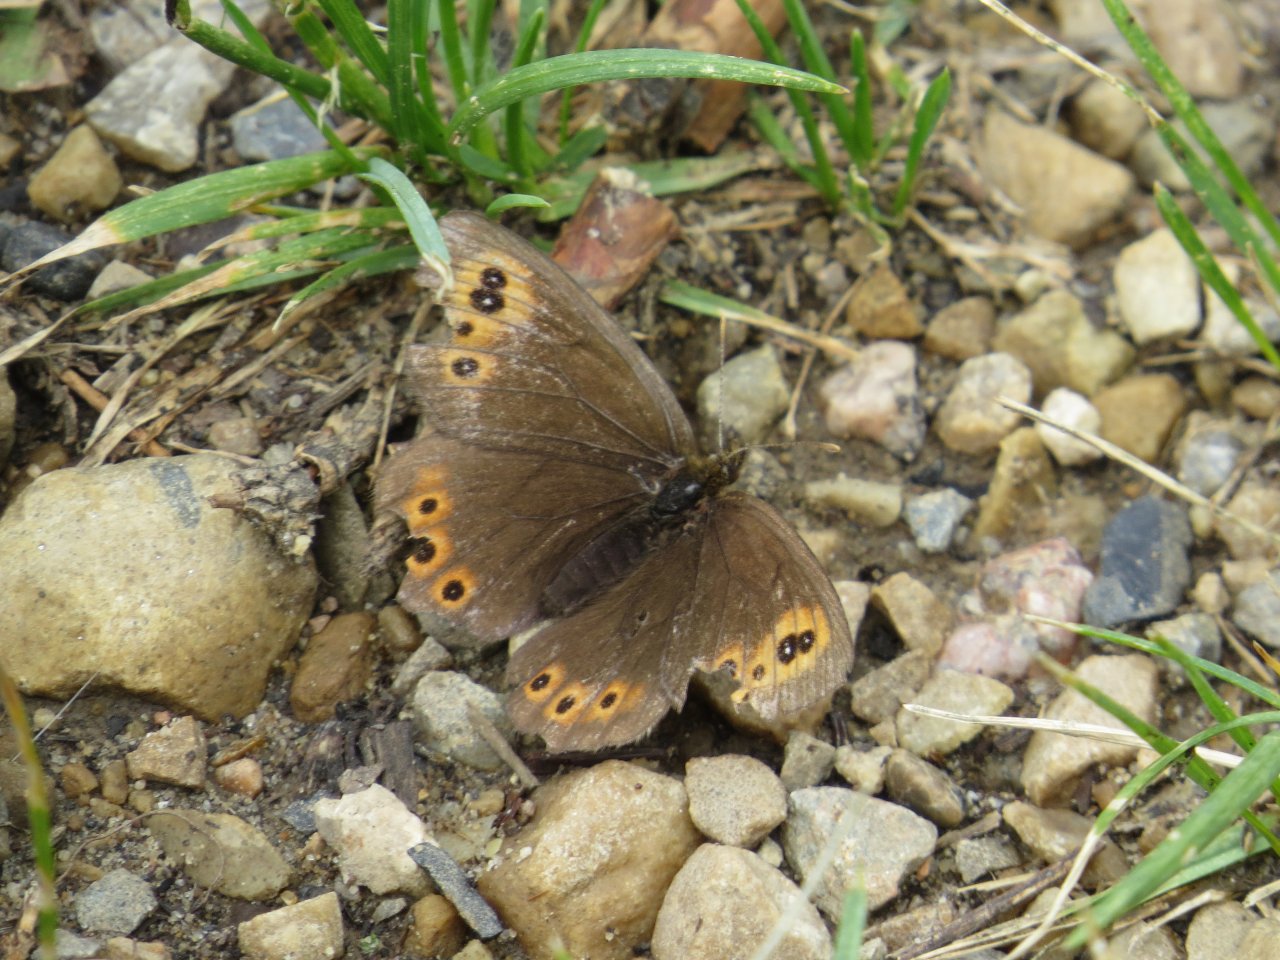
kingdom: Animalia
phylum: Arthropoda
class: Insecta
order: Lepidoptera
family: Nymphalidae
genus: Erebia
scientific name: Erebia epipsodea
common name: Common Alpine
